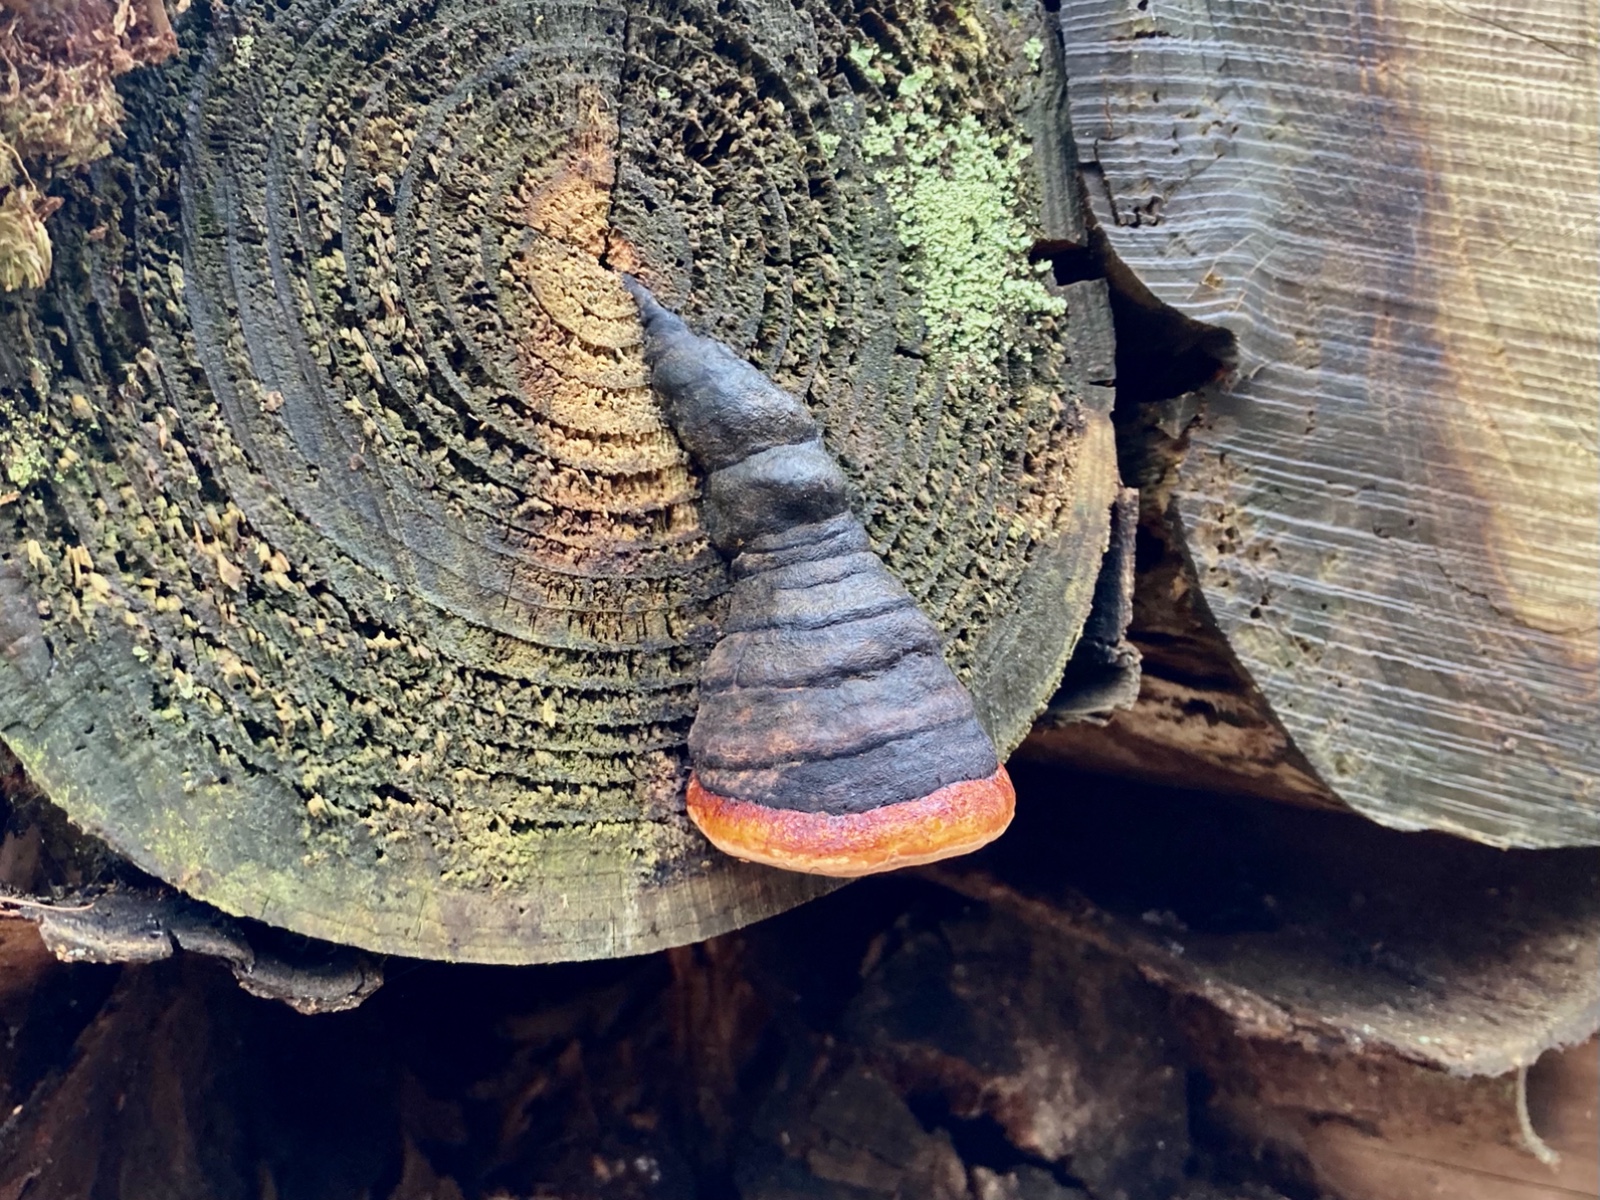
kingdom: Fungi
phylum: Basidiomycota
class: Agaricomycetes
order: Polyporales
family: Fomitopsidaceae
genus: Fomitopsis
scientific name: Fomitopsis pinicola
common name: randbæltet hovporesvamp
